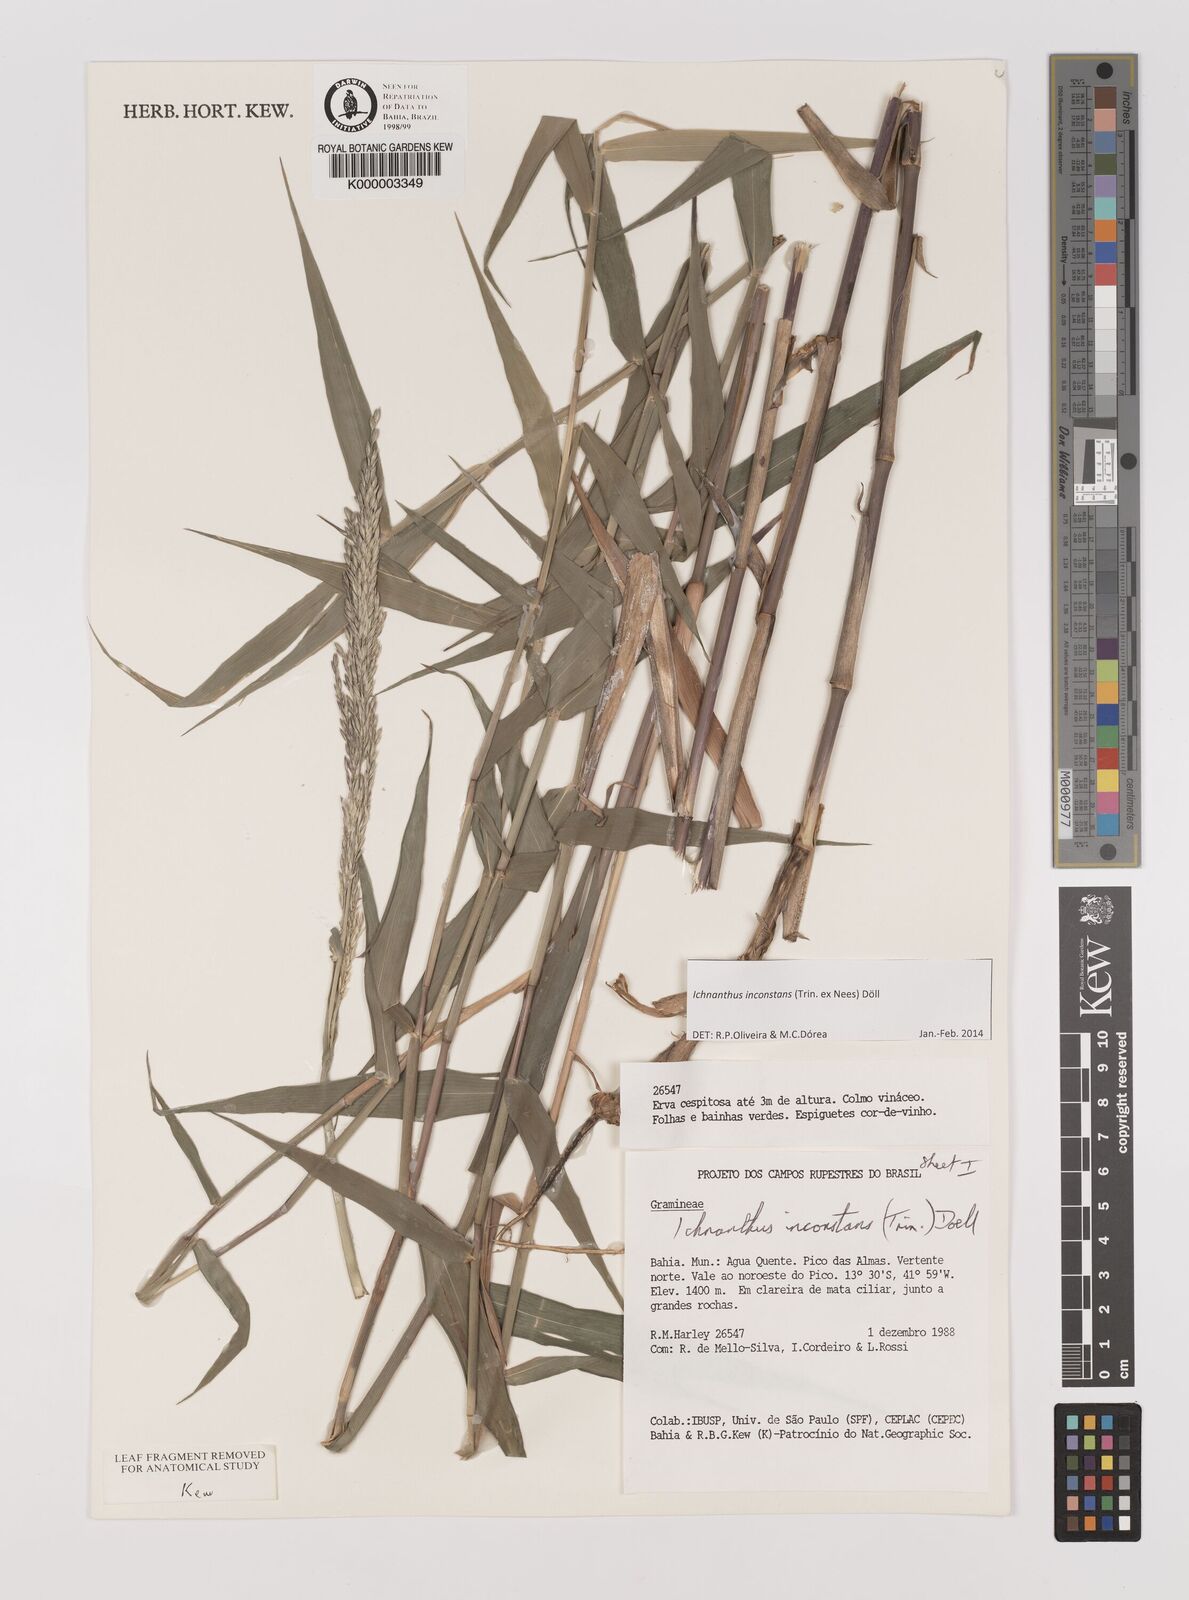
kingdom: Plantae
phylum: Tracheophyta
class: Liliopsida
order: Poales
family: Poaceae
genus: Ichnanthus
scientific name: Ichnanthus
